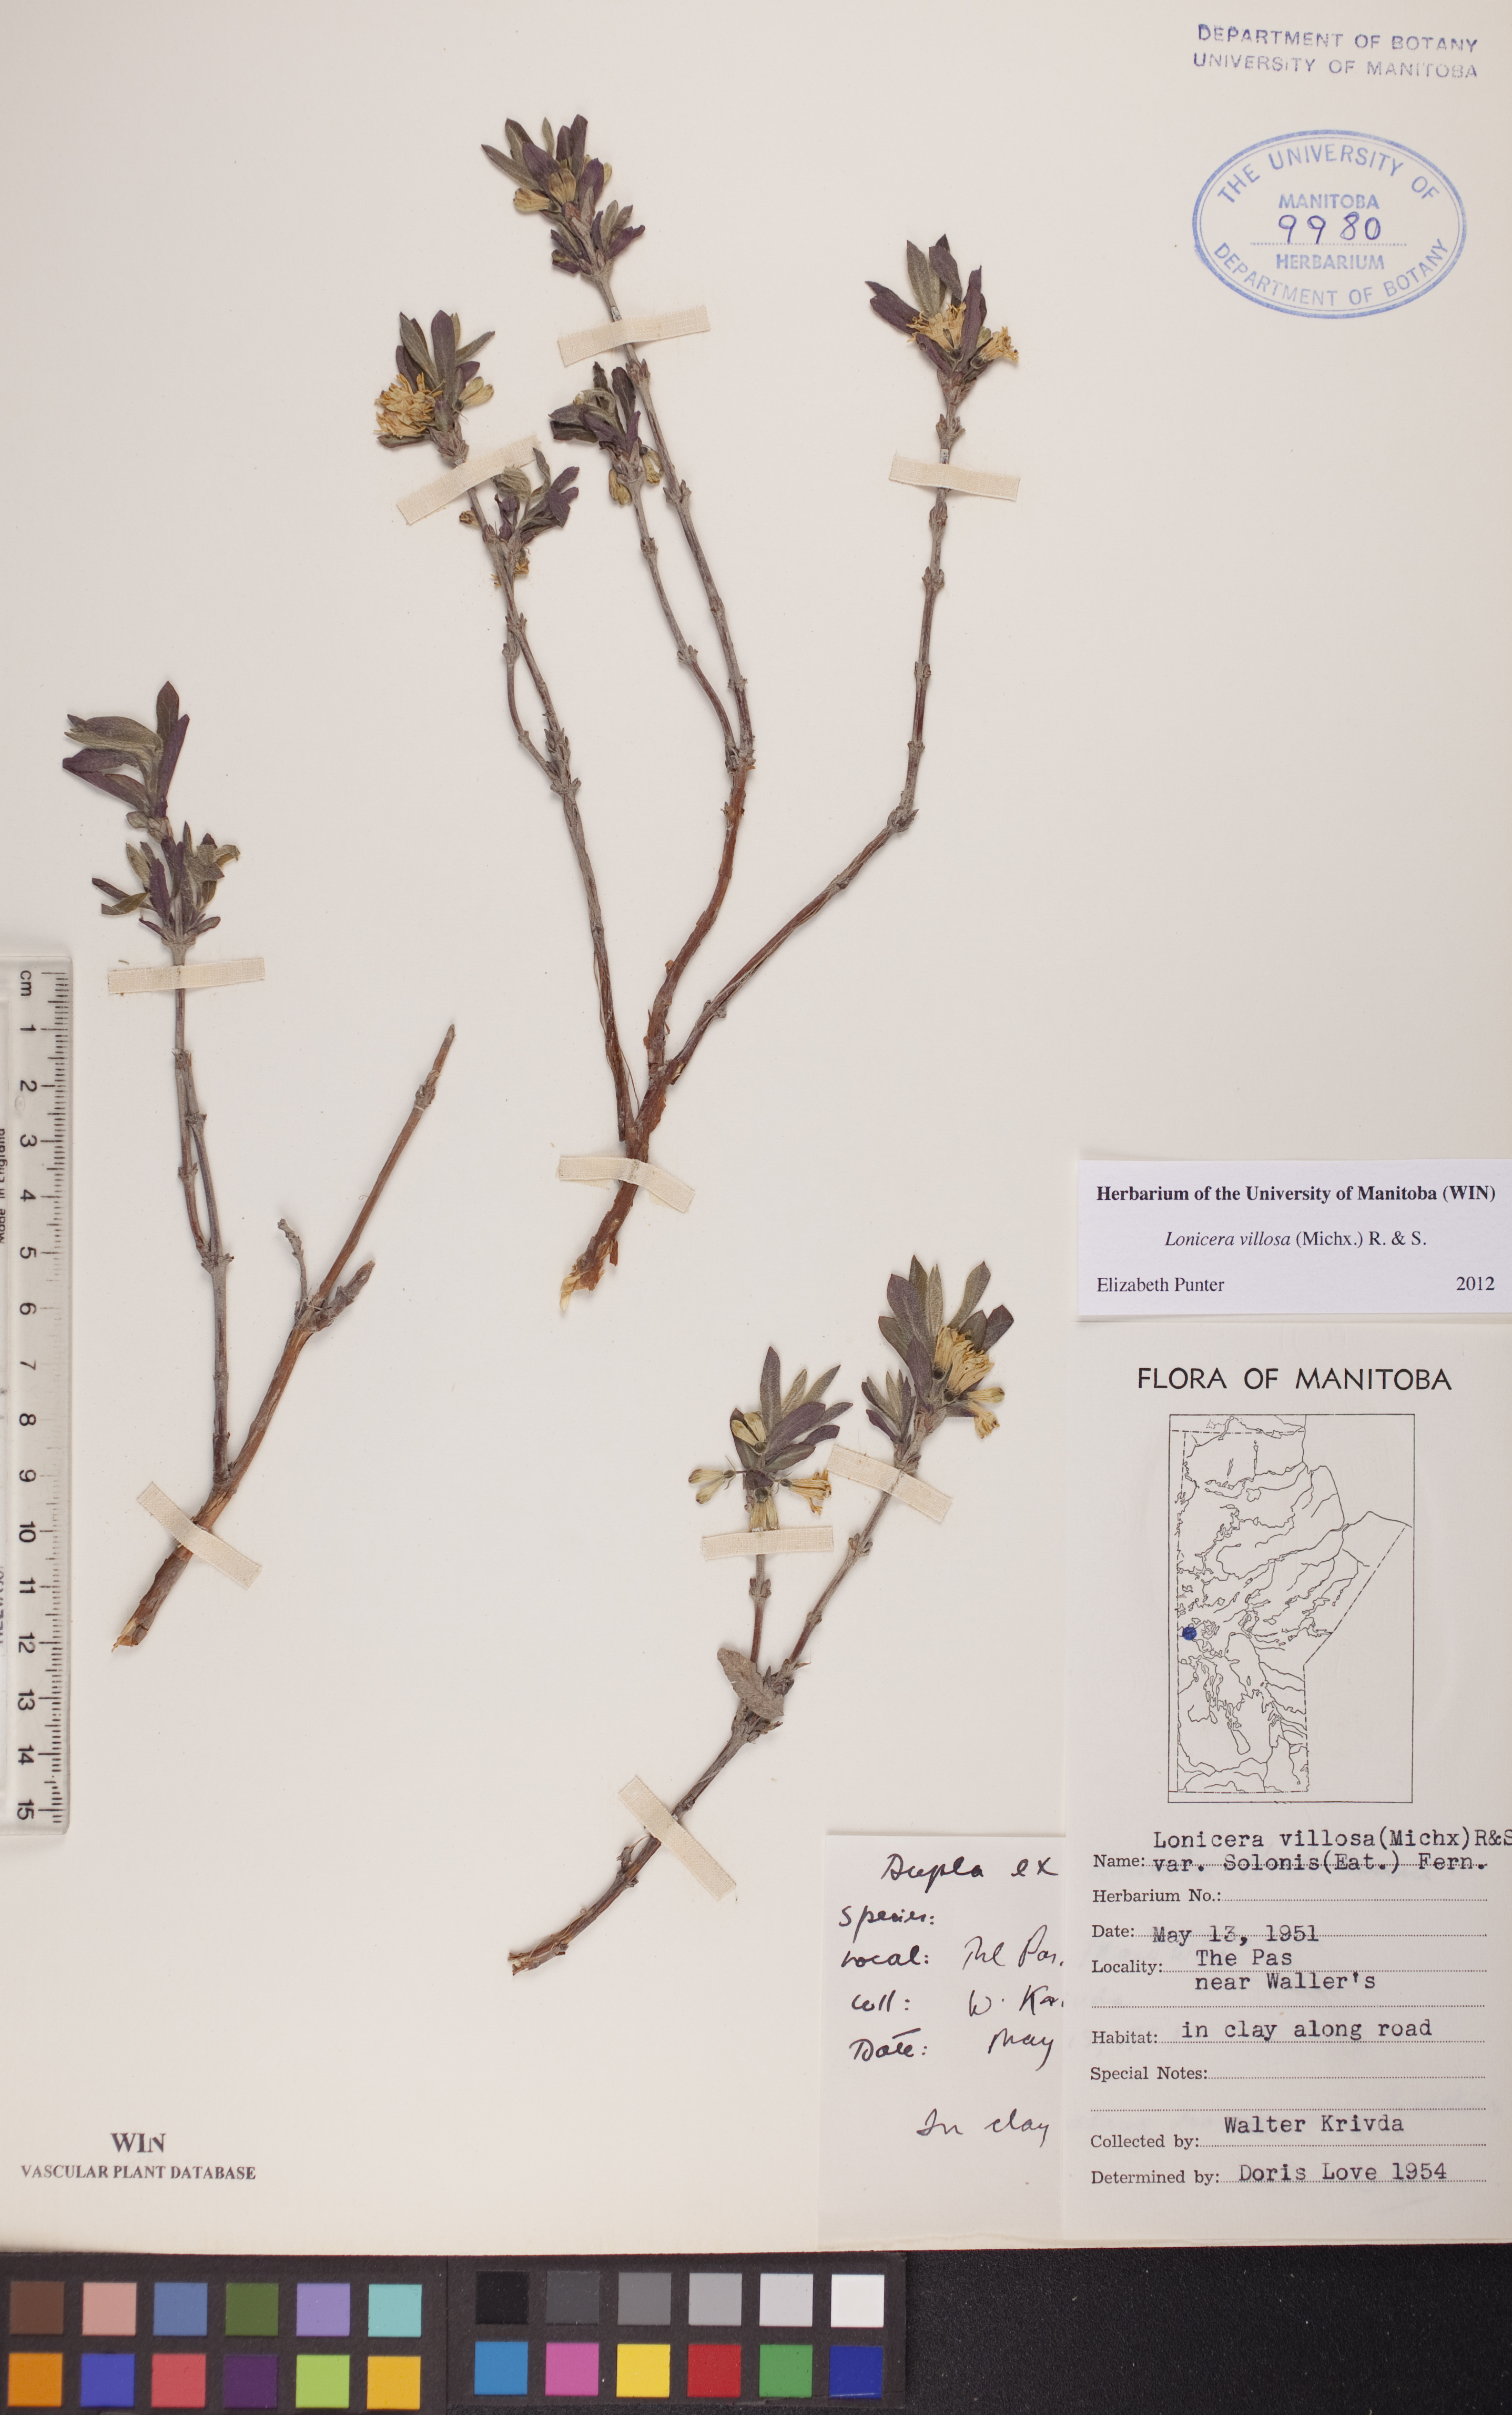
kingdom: Plantae
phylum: Tracheophyta
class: Magnoliopsida
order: Dipsacales
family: Caprifoliaceae
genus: Lonicera
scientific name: Lonicera villosa
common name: Mountain fly-honeysuckle
